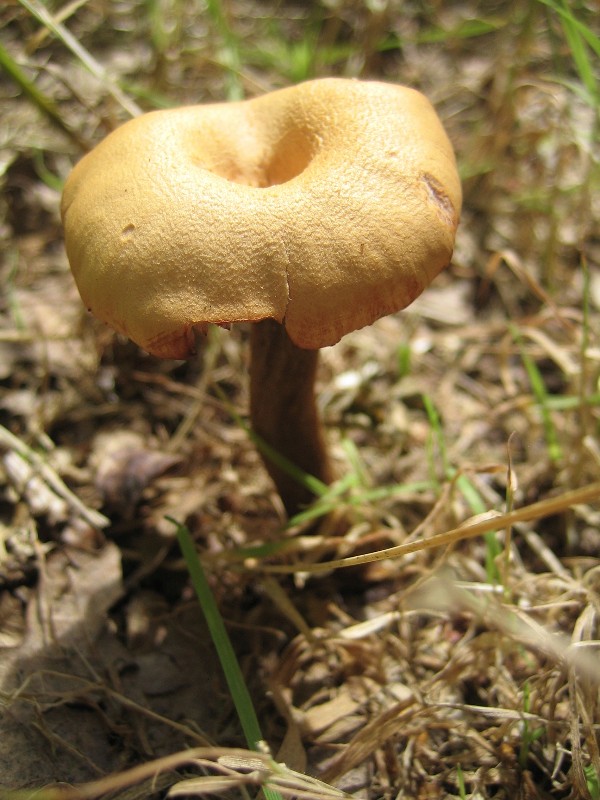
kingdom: Fungi
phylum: Basidiomycota
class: Agaricomycetes
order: Agaricales
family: Hydnangiaceae
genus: Laccaria
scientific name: Laccaria proxima
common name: stor ametysthat
